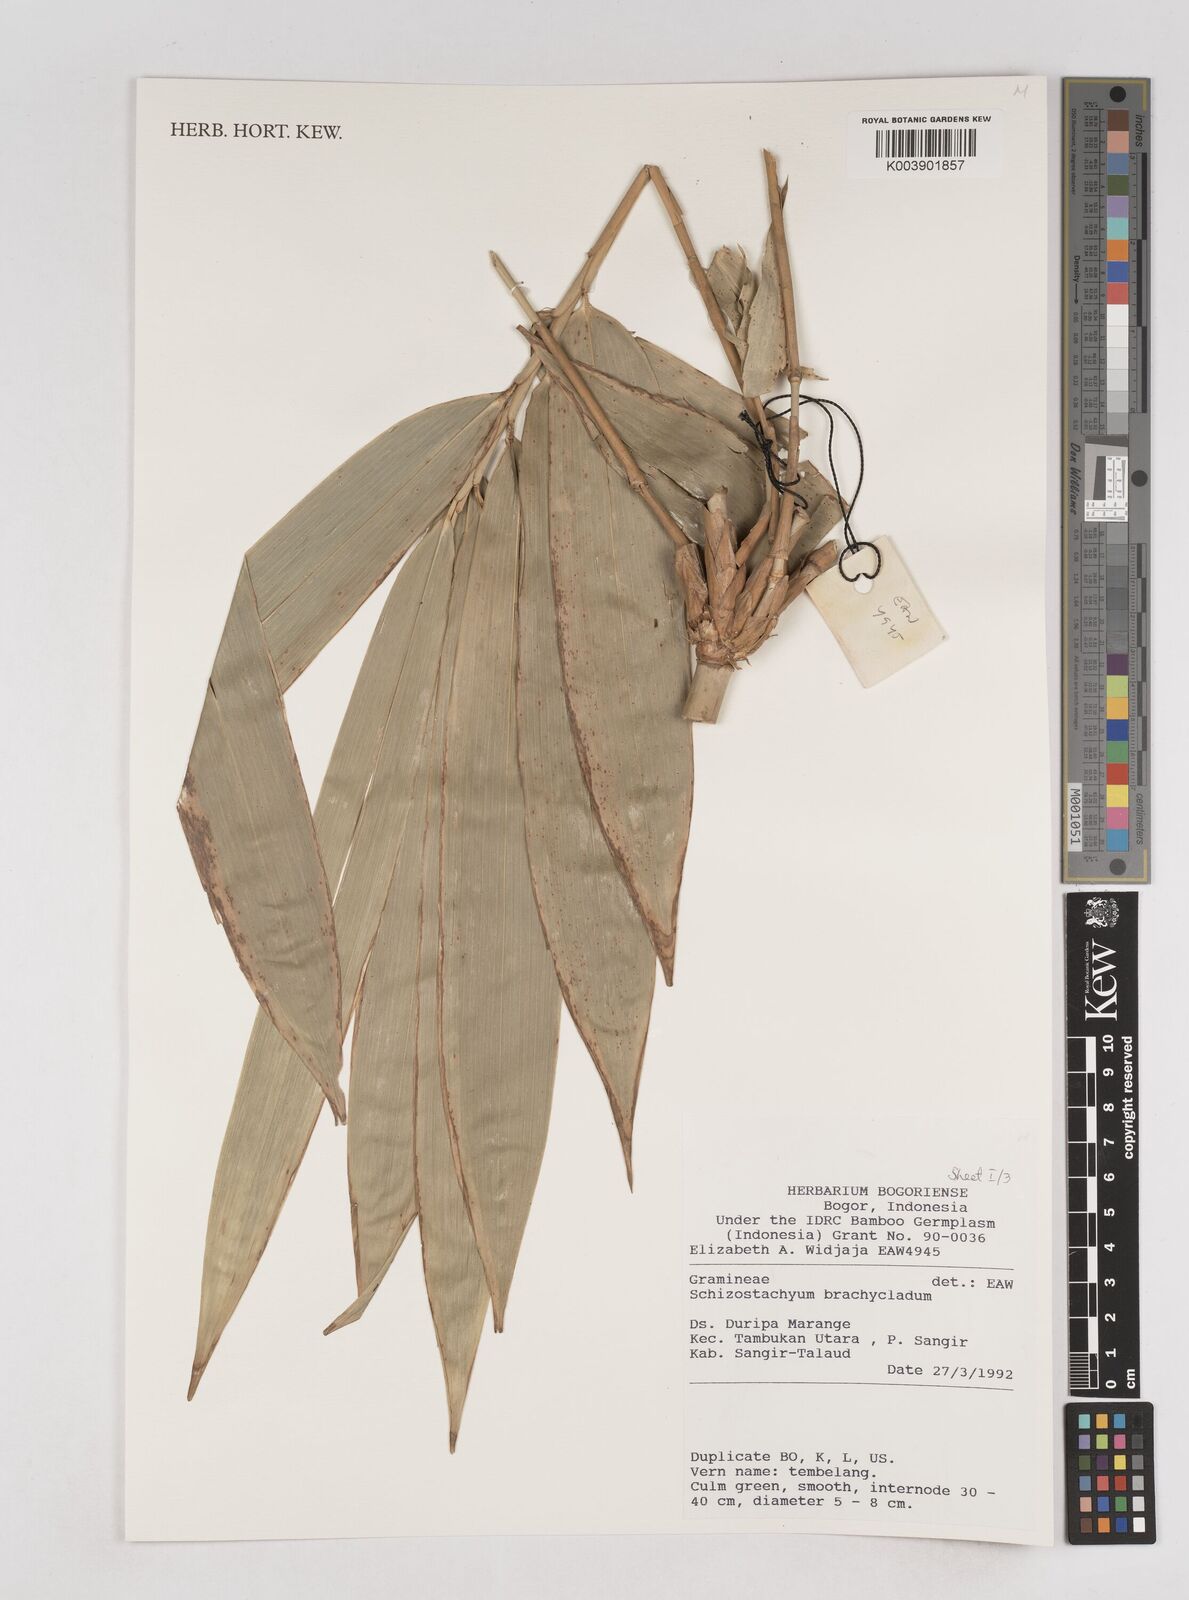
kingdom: Plantae
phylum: Tracheophyta
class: Liliopsida
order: Poales
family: Poaceae
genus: Schizostachyum
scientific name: Schizostachyum brachycladum
